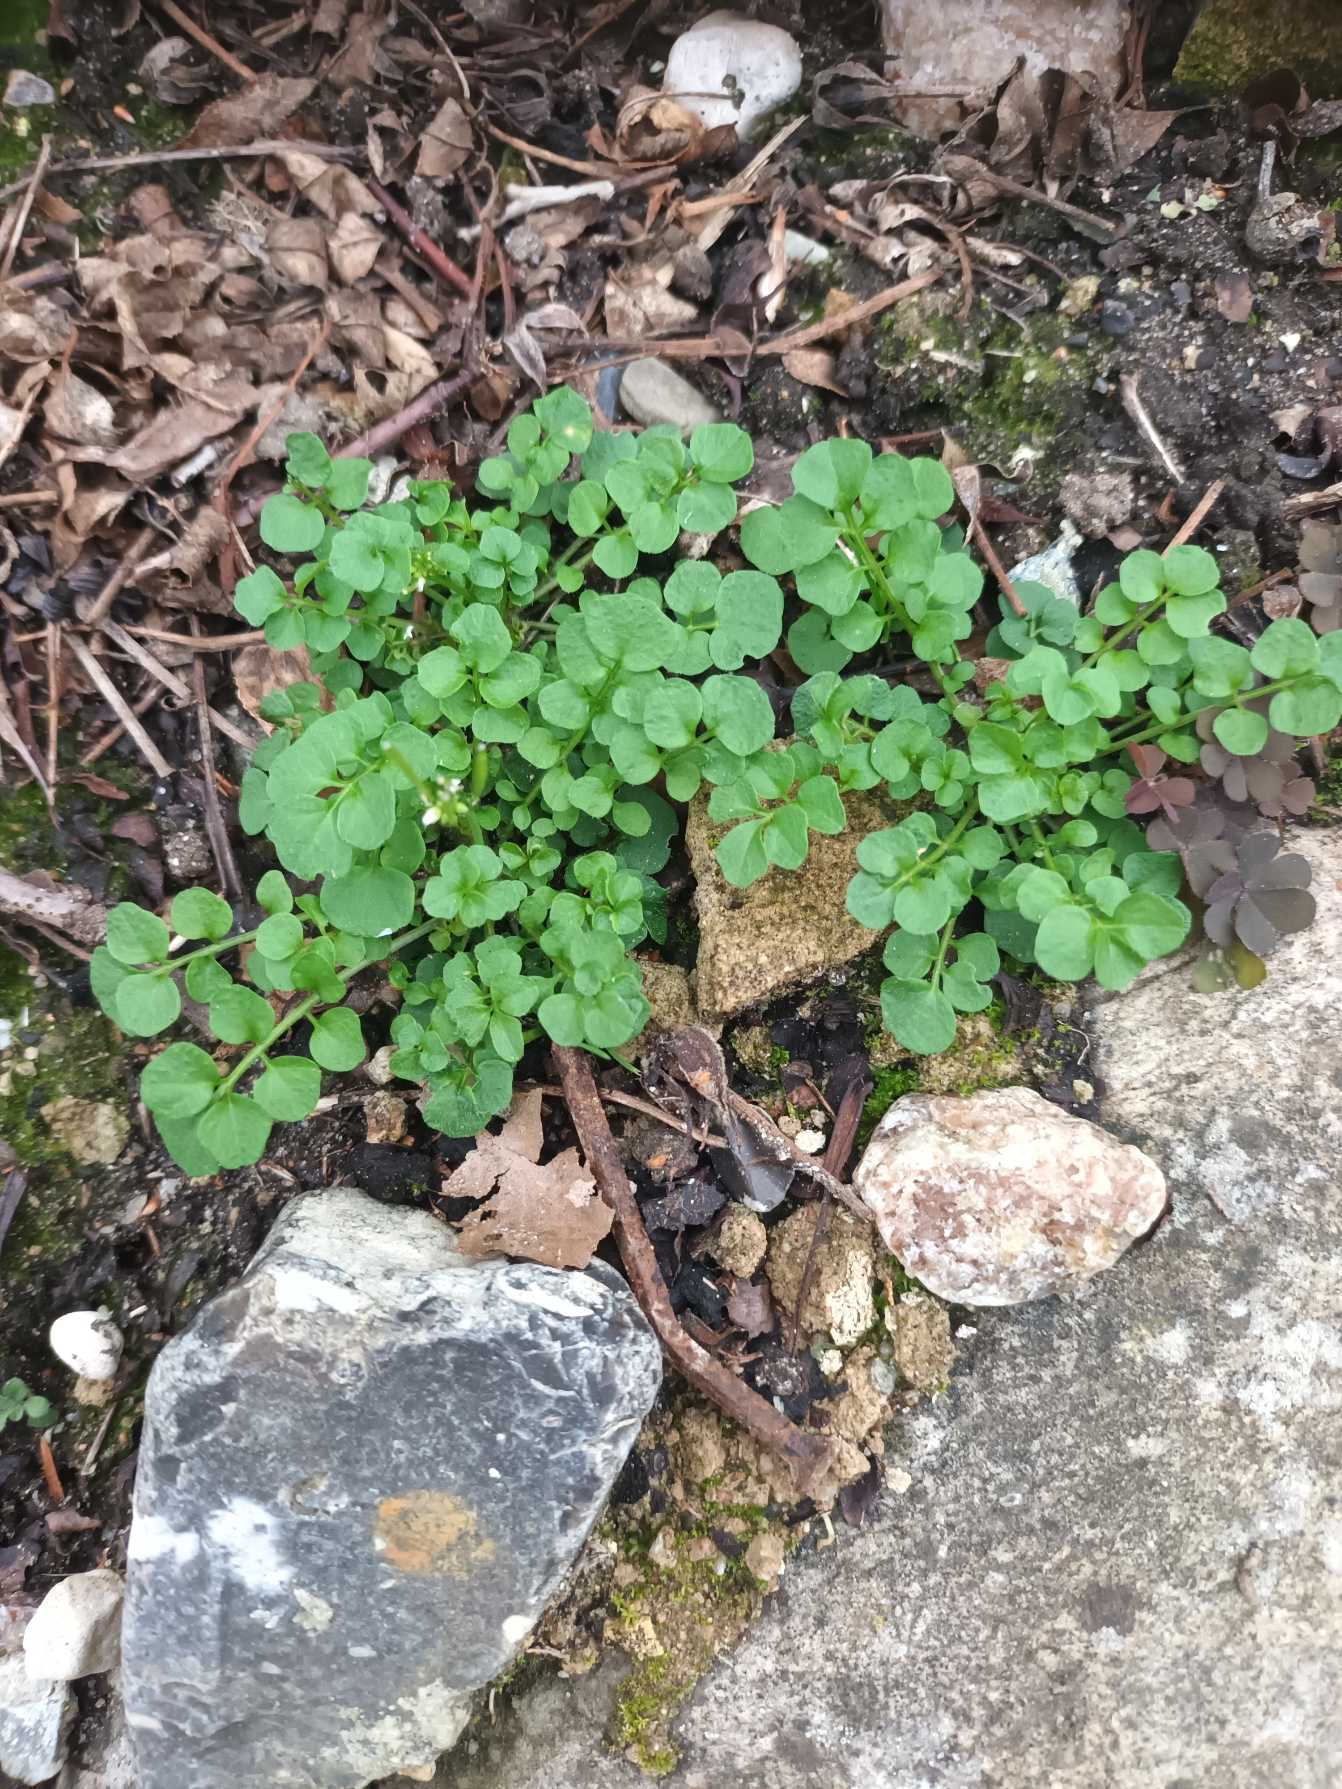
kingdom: Plantae
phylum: Tracheophyta
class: Magnoliopsida
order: Brassicales
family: Brassicaceae
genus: Cardamine
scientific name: Cardamine hirsuta
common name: Roset-springklap
